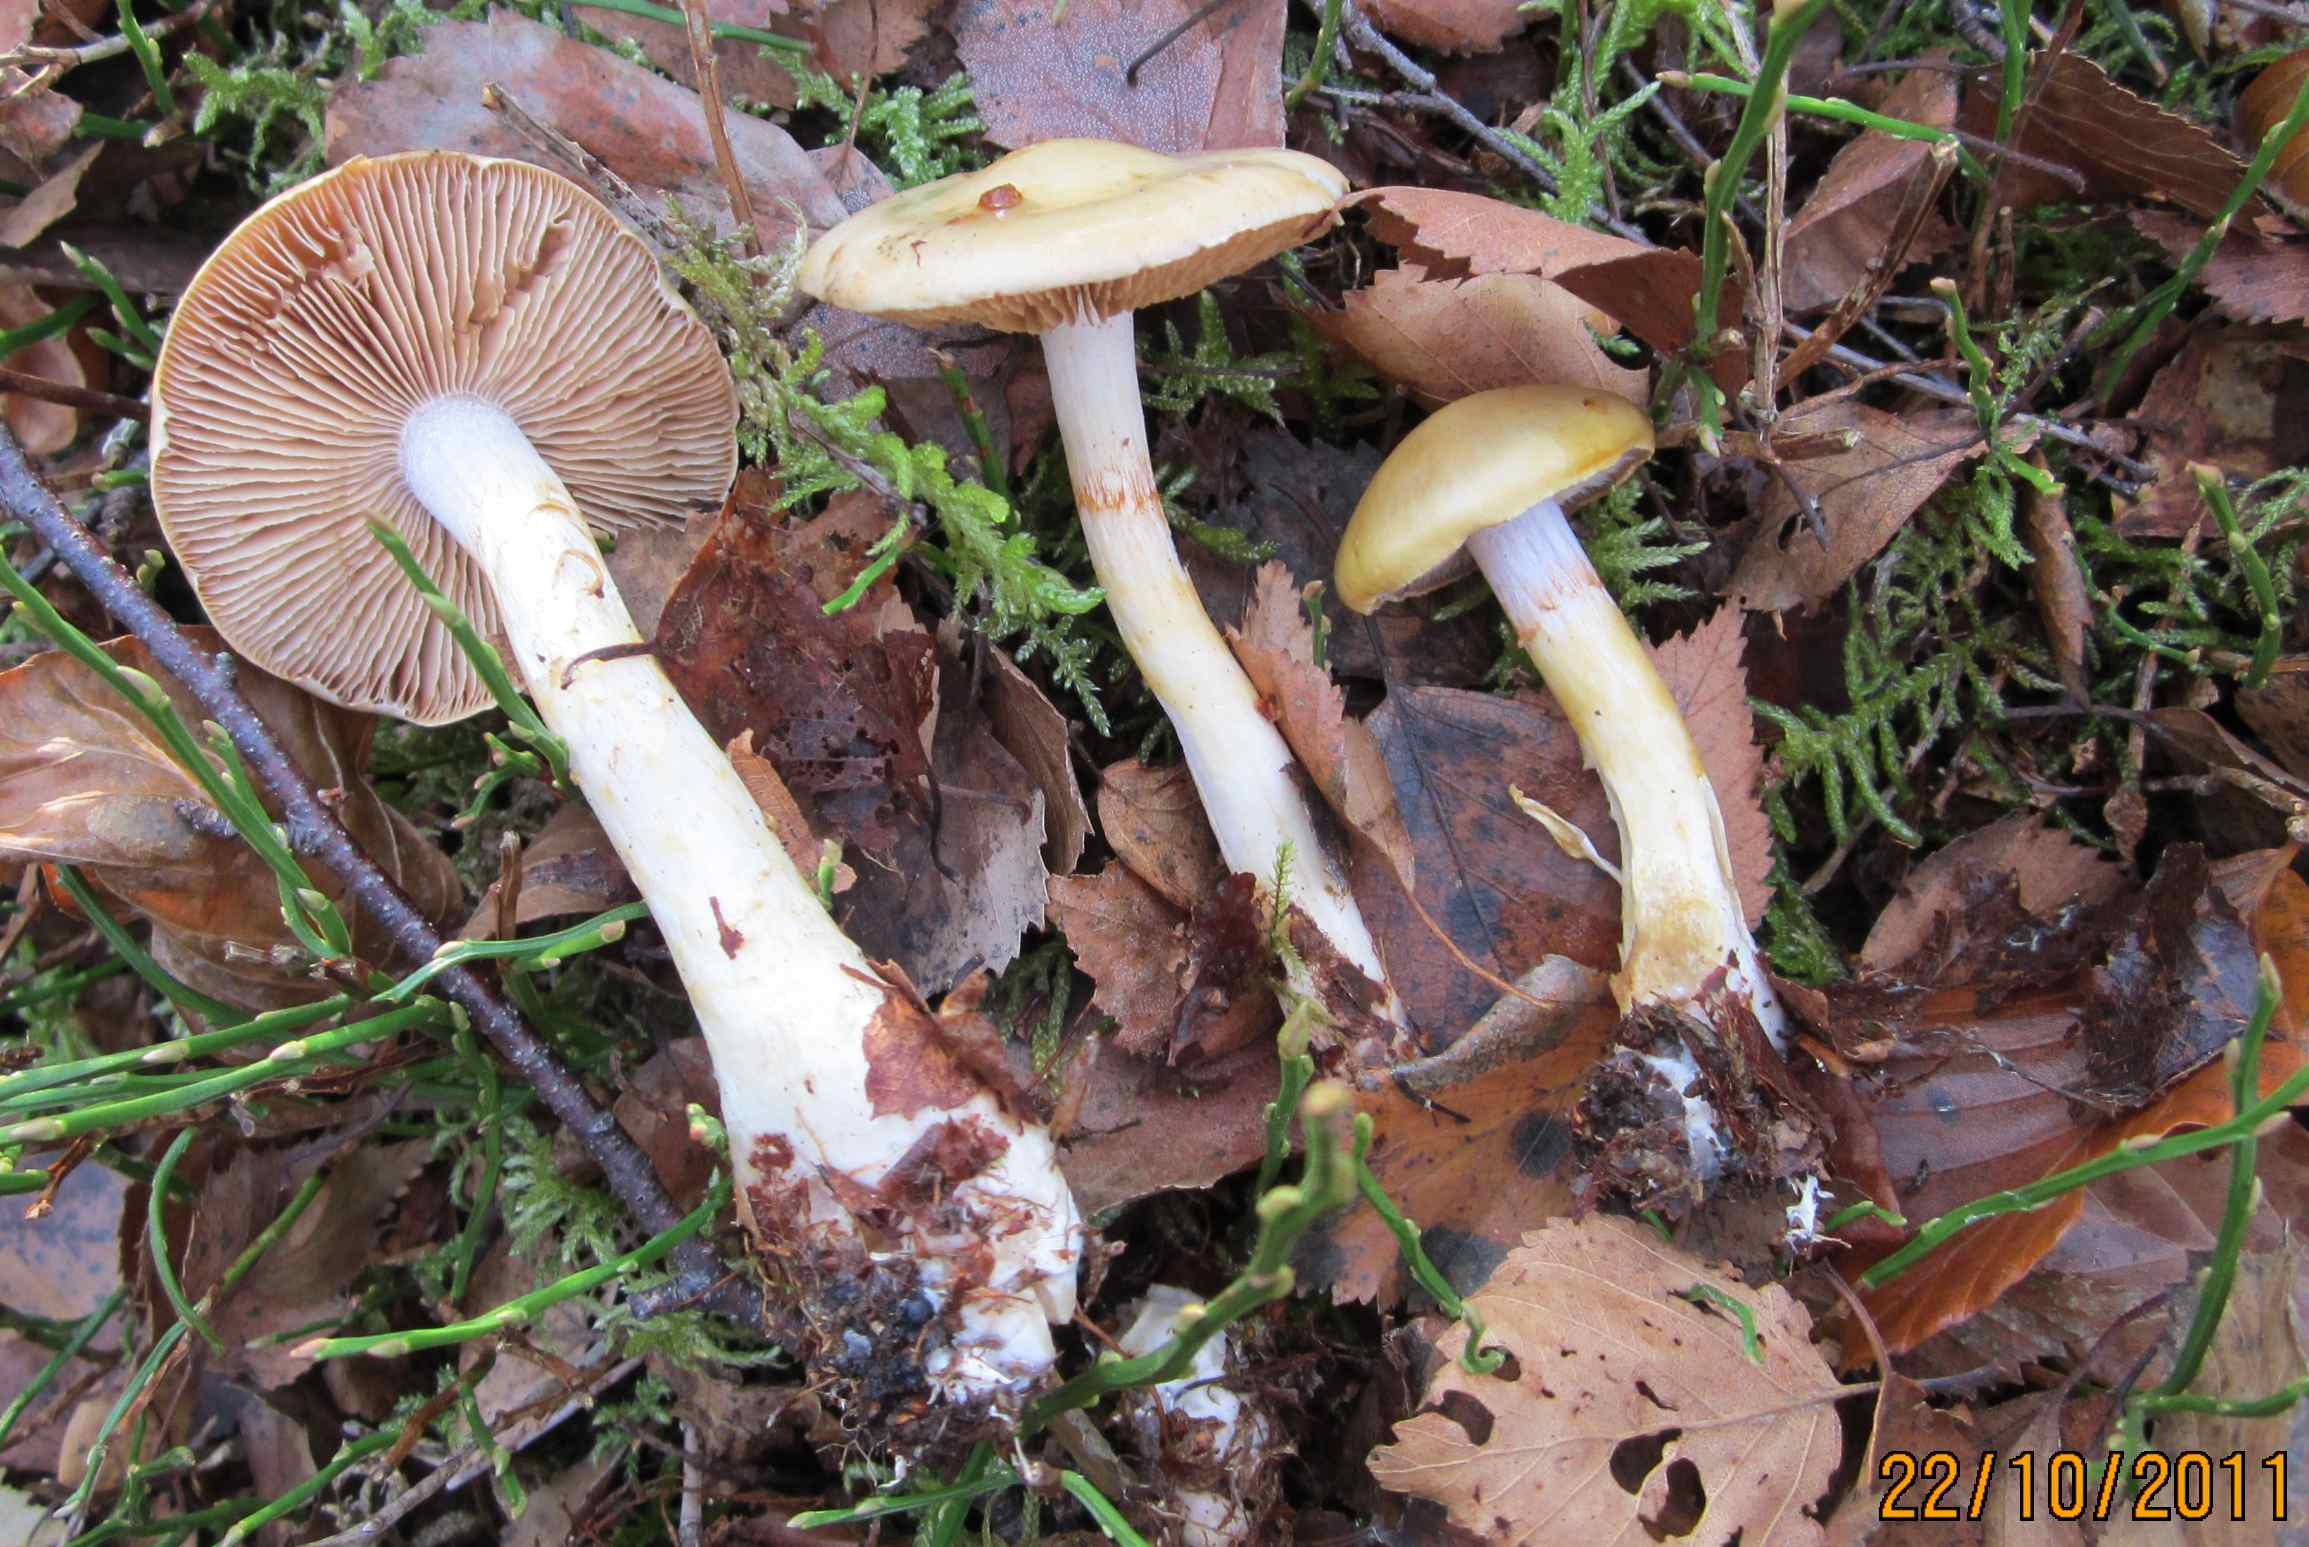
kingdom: Fungi
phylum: Basidiomycota
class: Agaricomycetes
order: Agaricales
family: Cortinariaceae
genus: Cortinarius
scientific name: Cortinarius delibutus
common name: gul slørhat
